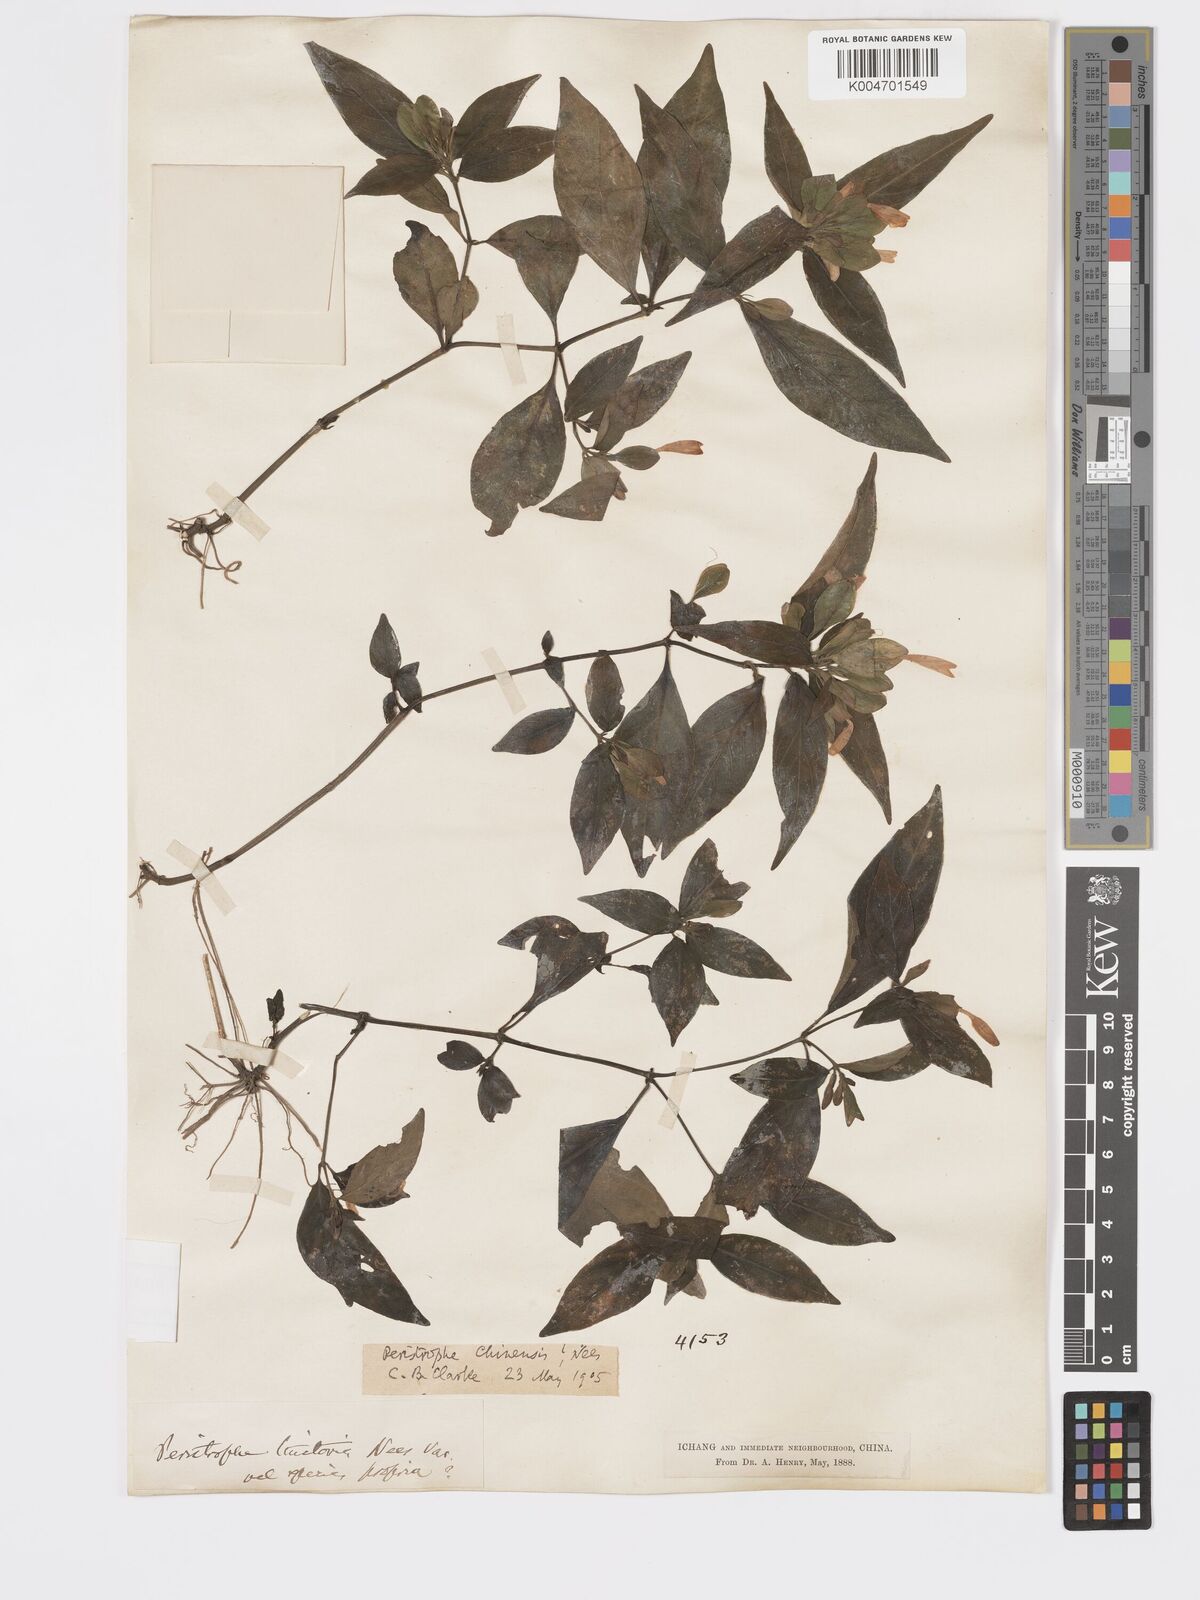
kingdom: Plantae
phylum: Tracheophyta
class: Magnoliopsida
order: Lamiales
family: Acanthaceae
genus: Dicliptera
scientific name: Dicliptera chinensis
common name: Chinese foldwing
